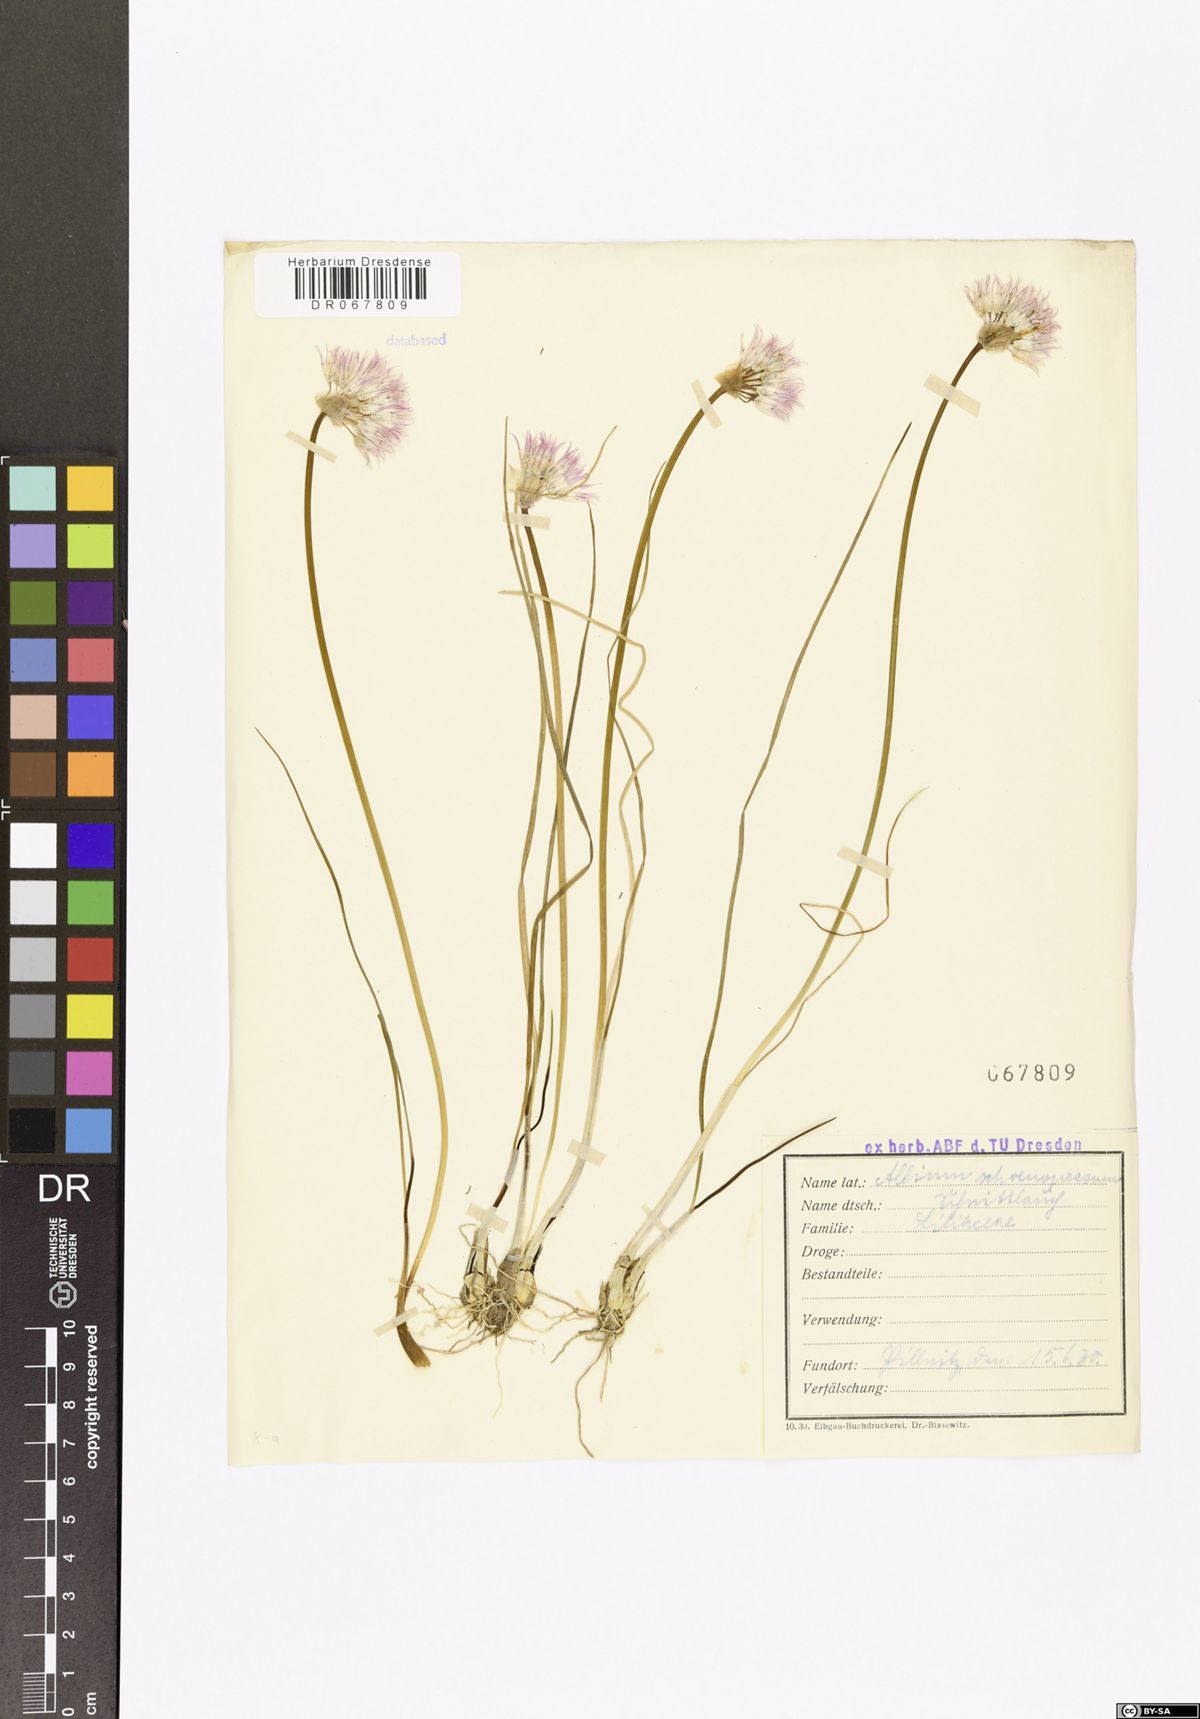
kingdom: Plantae
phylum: Tracheophyta
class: Liliopsida
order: Asparagales
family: Amaryllidaceae
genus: Allium
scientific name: Allium schoenoprasum
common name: Chives
